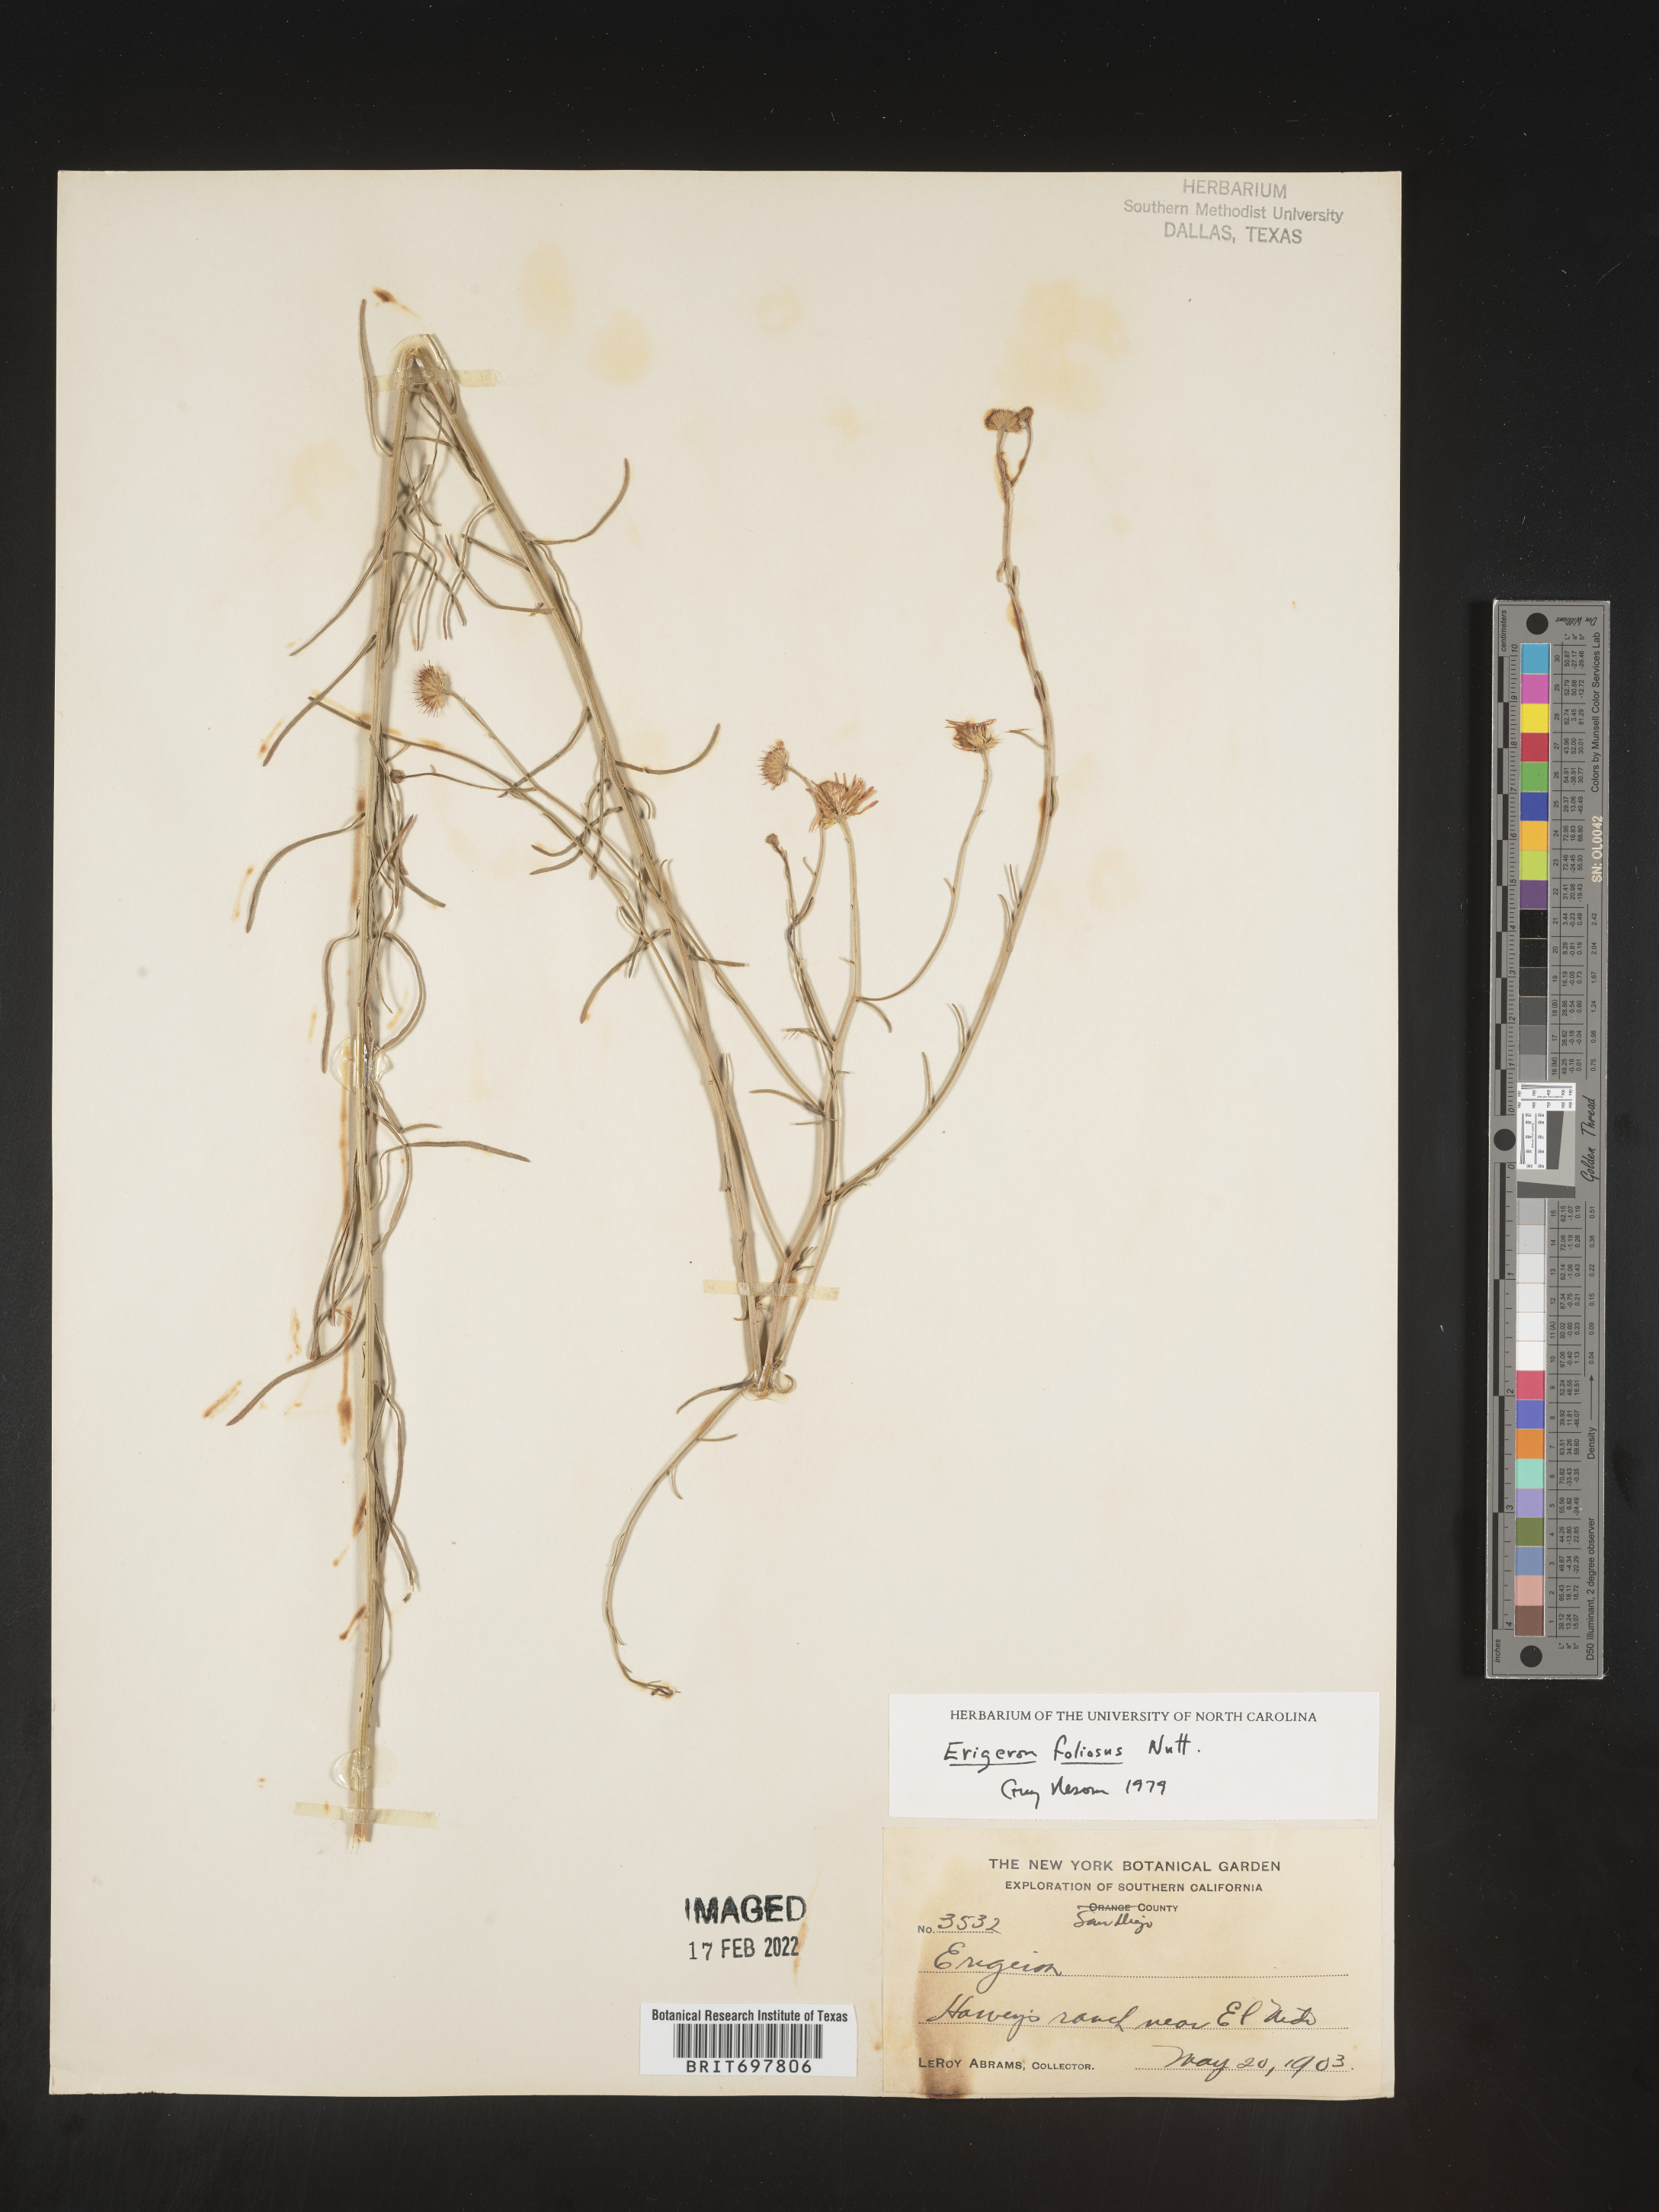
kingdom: Plantae
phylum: Tracheophyta
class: Magnoliopsida
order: Asterales
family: Asteraceae
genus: Erigeron
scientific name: Erigeron foliosus
